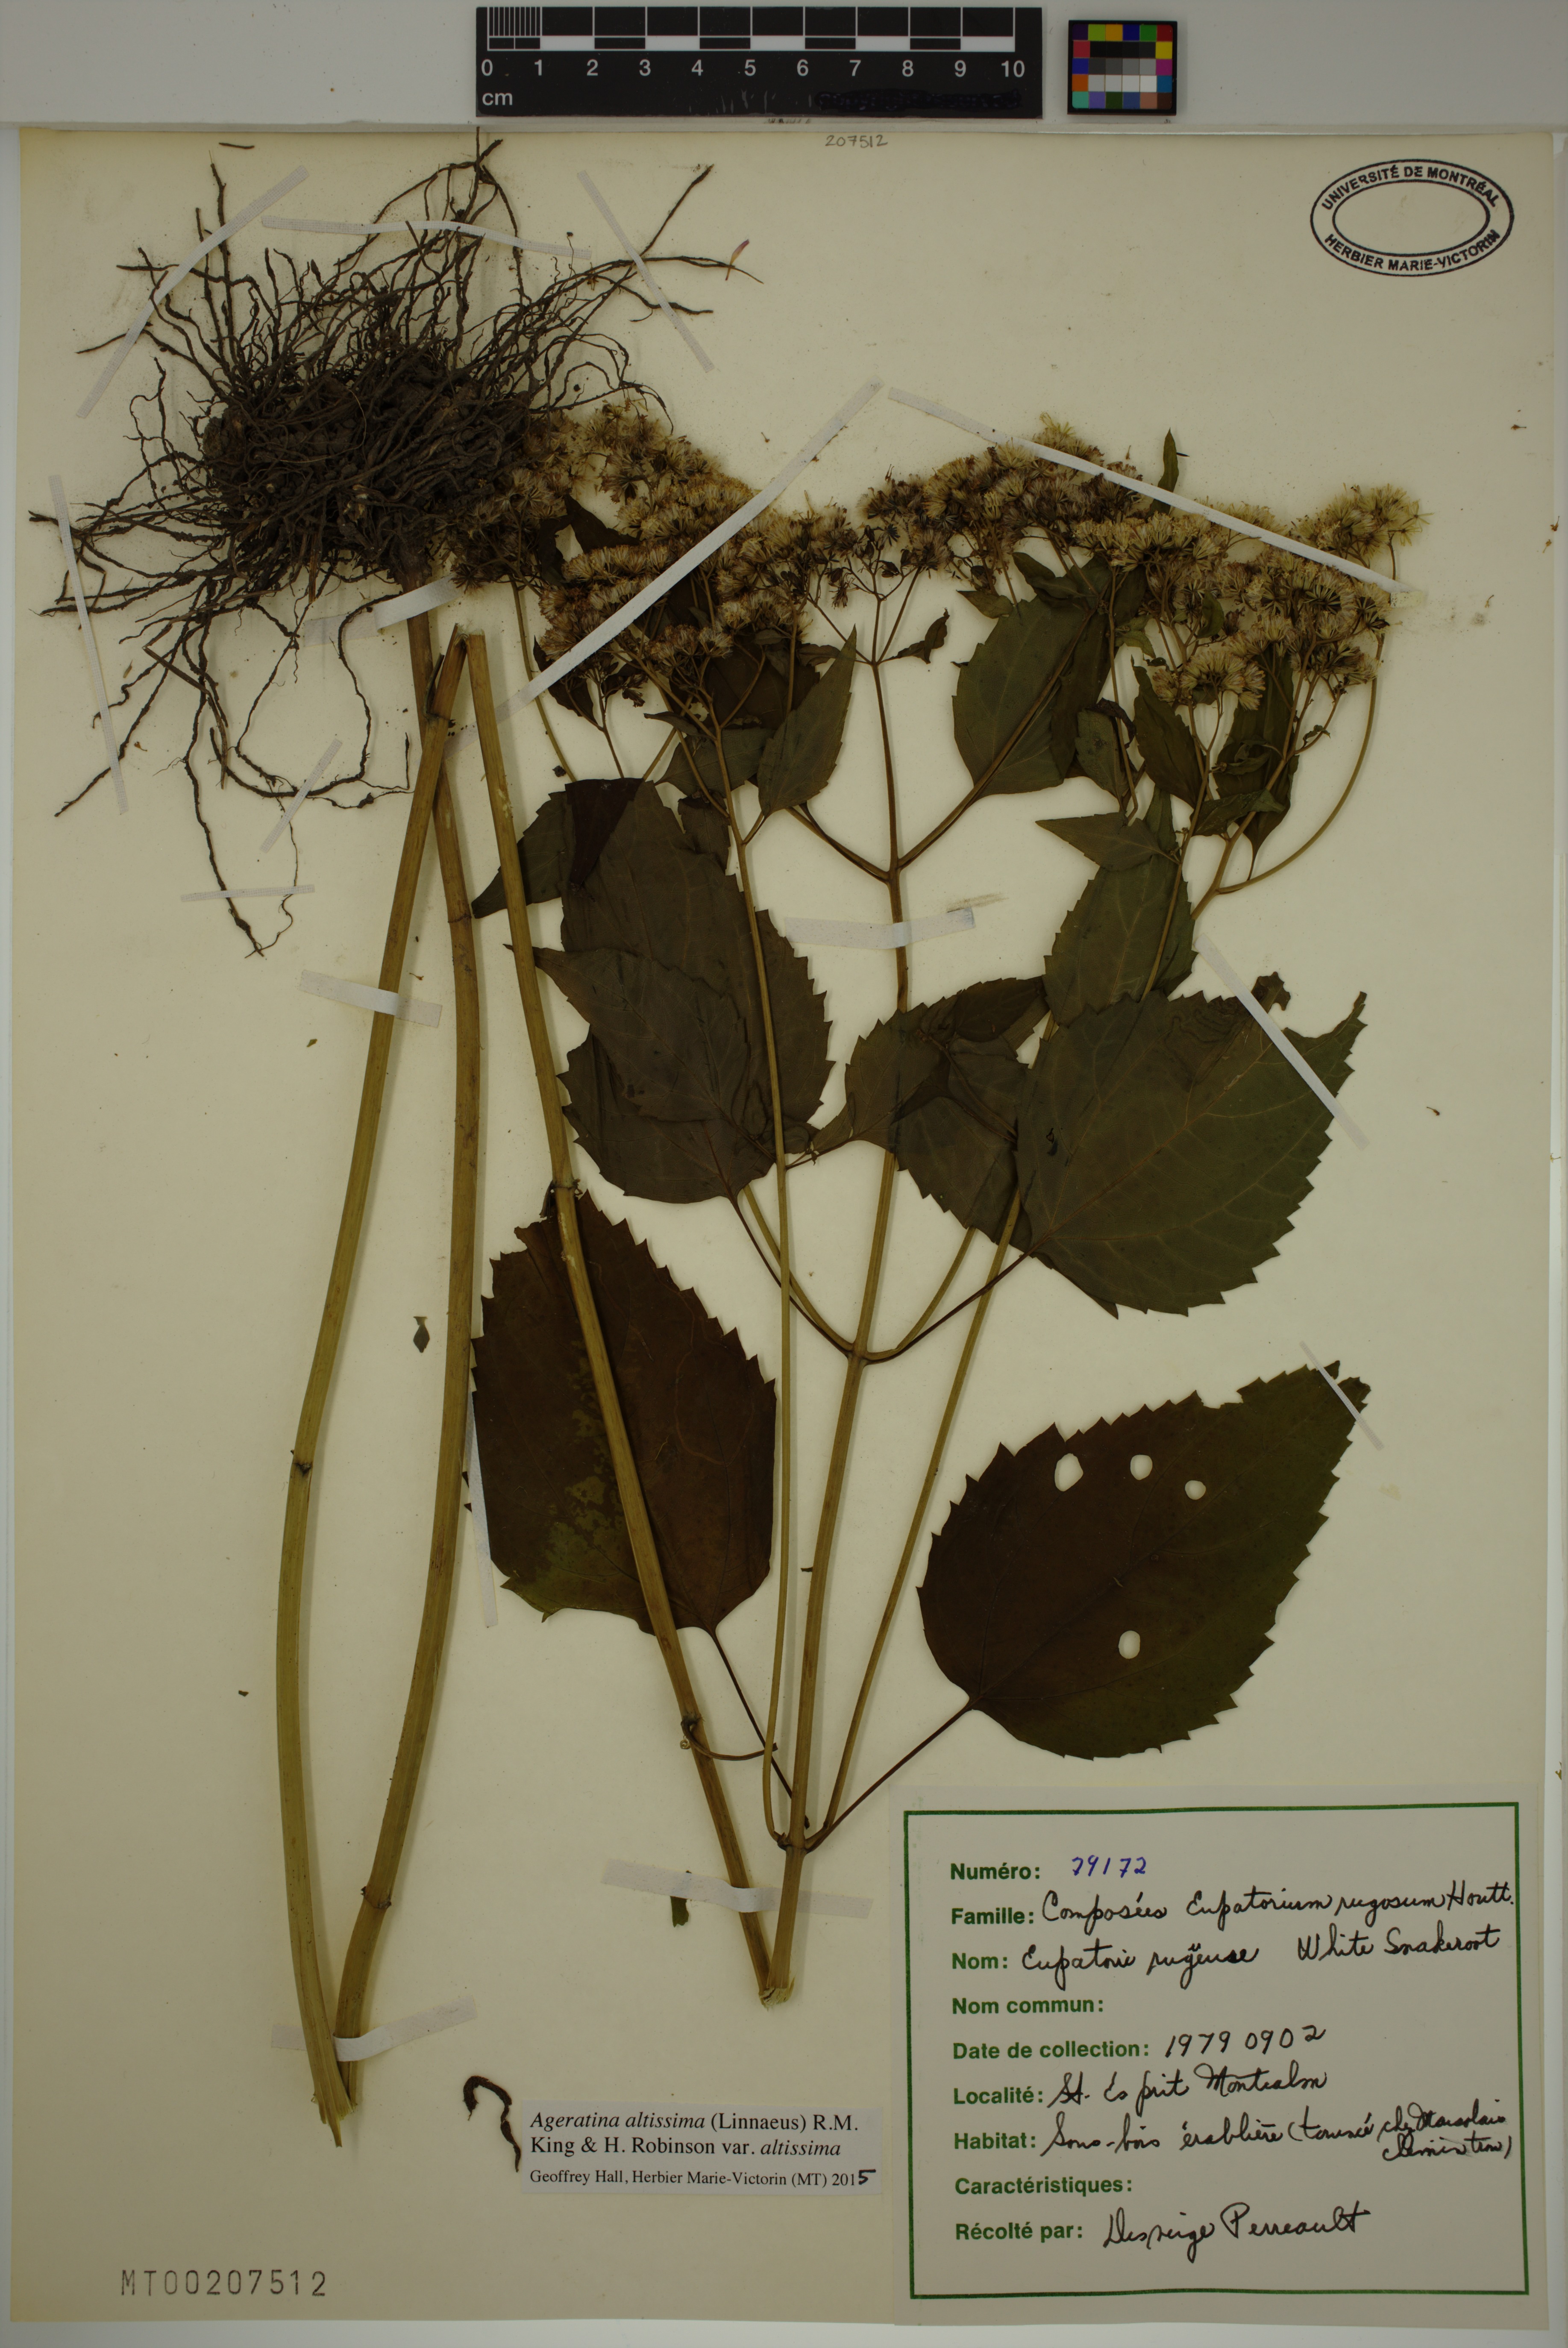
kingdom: Plantae
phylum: Tracheophyta
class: Magnoliopsida
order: Asterales
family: Asteraceae
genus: Ageratina
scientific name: Ageratina altissima
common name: White snakeroot
